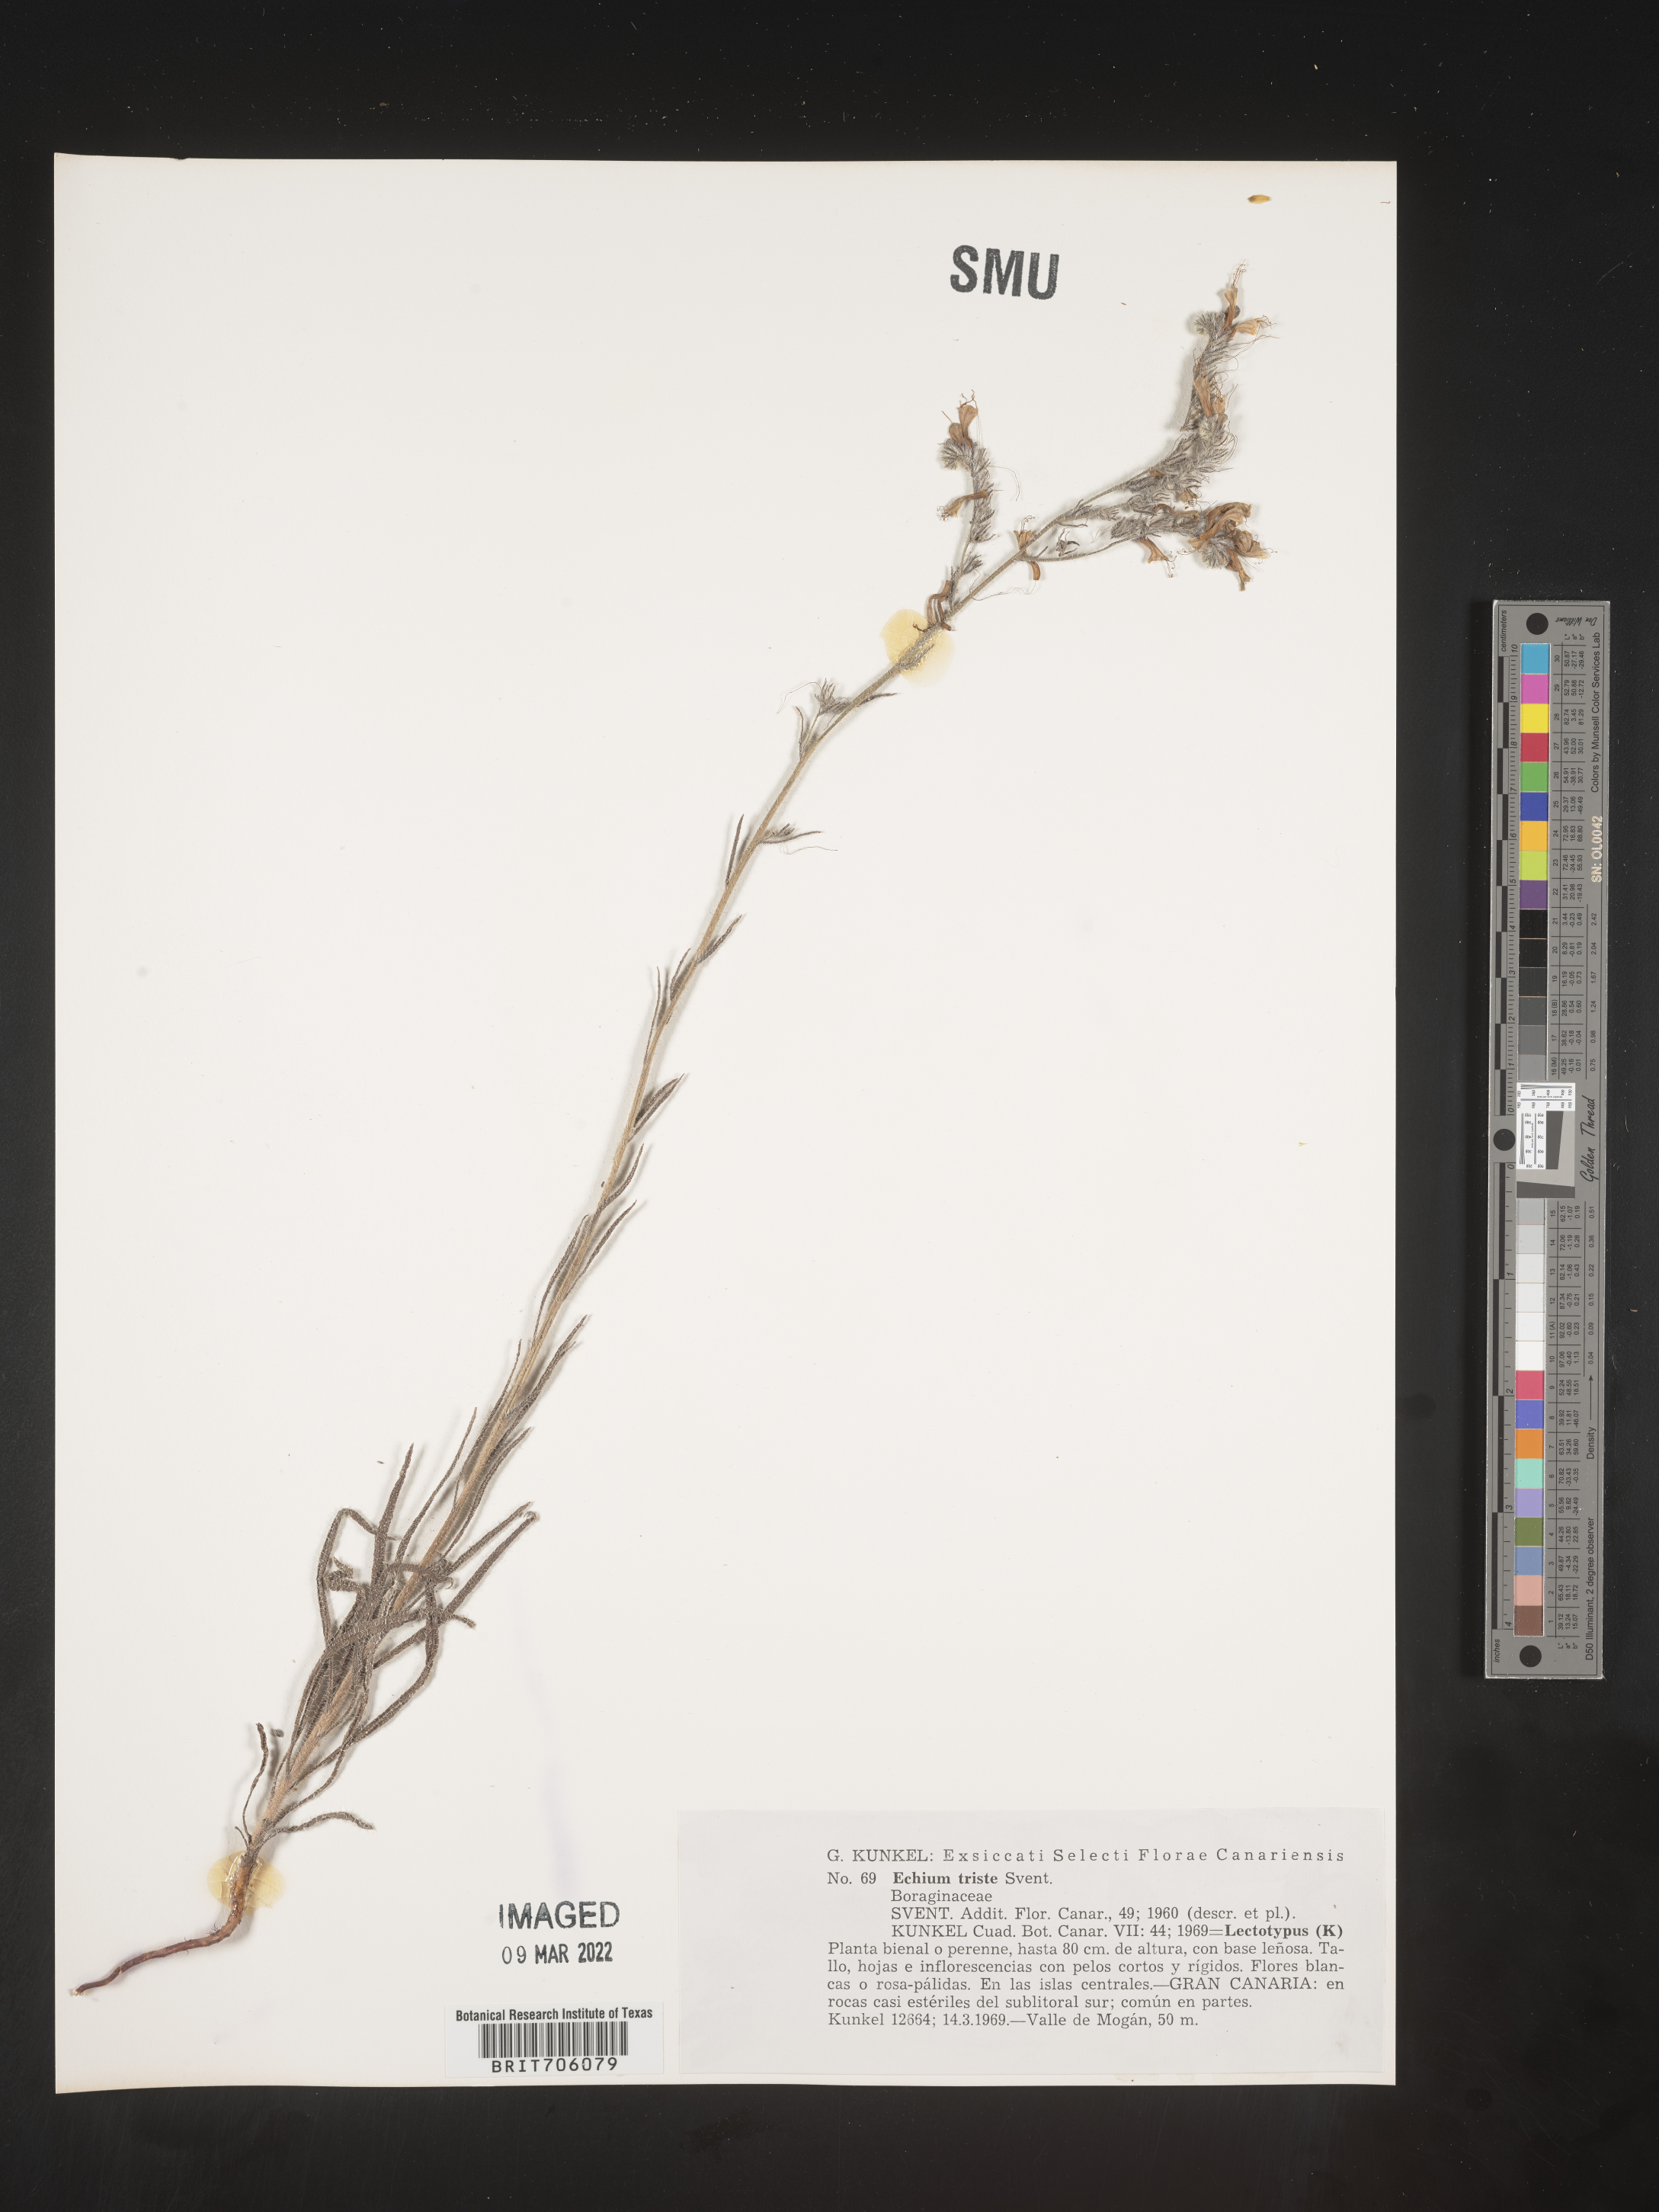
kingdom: Plantae
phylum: Tracheophyta
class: Magnoliopsida
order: Boraginales
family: Boraginaceae
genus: Echium
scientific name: Echium
